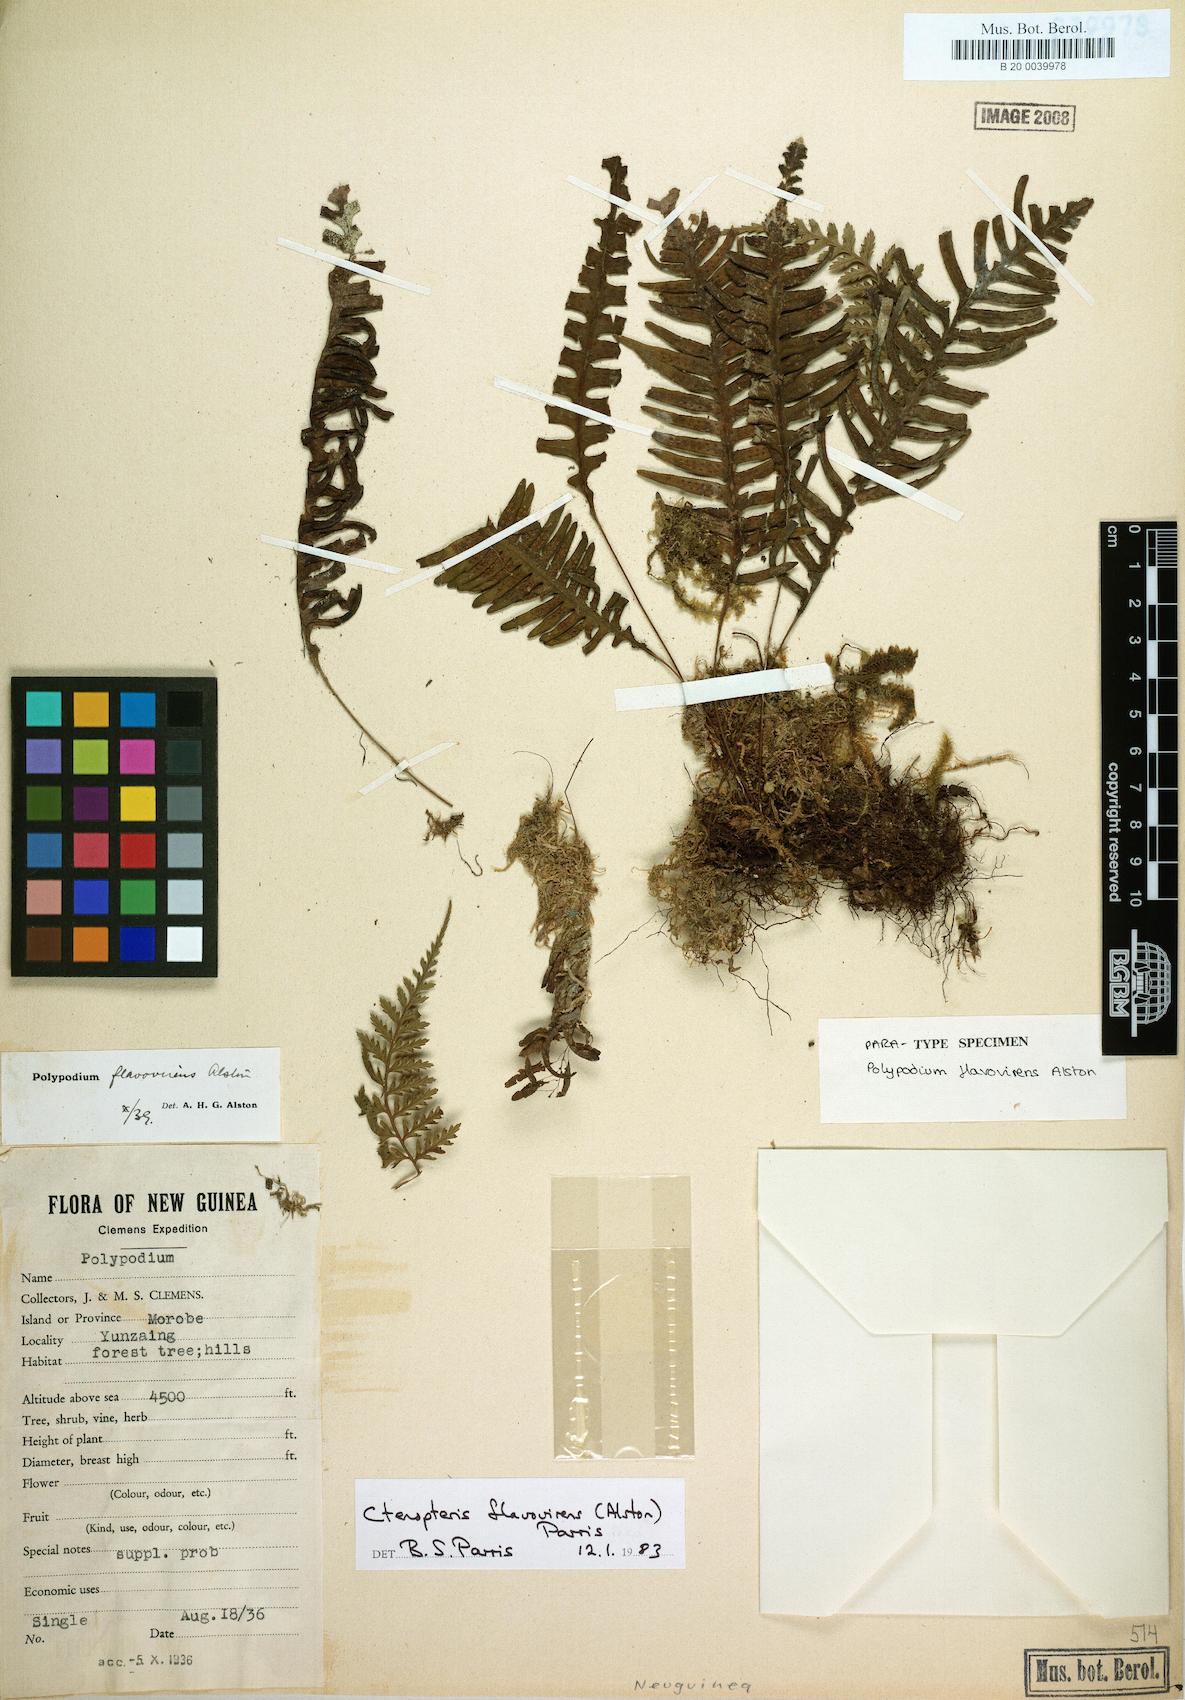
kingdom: Plantae
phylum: Tracheophyta
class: Polypodiopsida
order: Polypodiales
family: Polypodiaceae
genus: Oreogrammitis
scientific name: Oreogrammitis flavovirens
